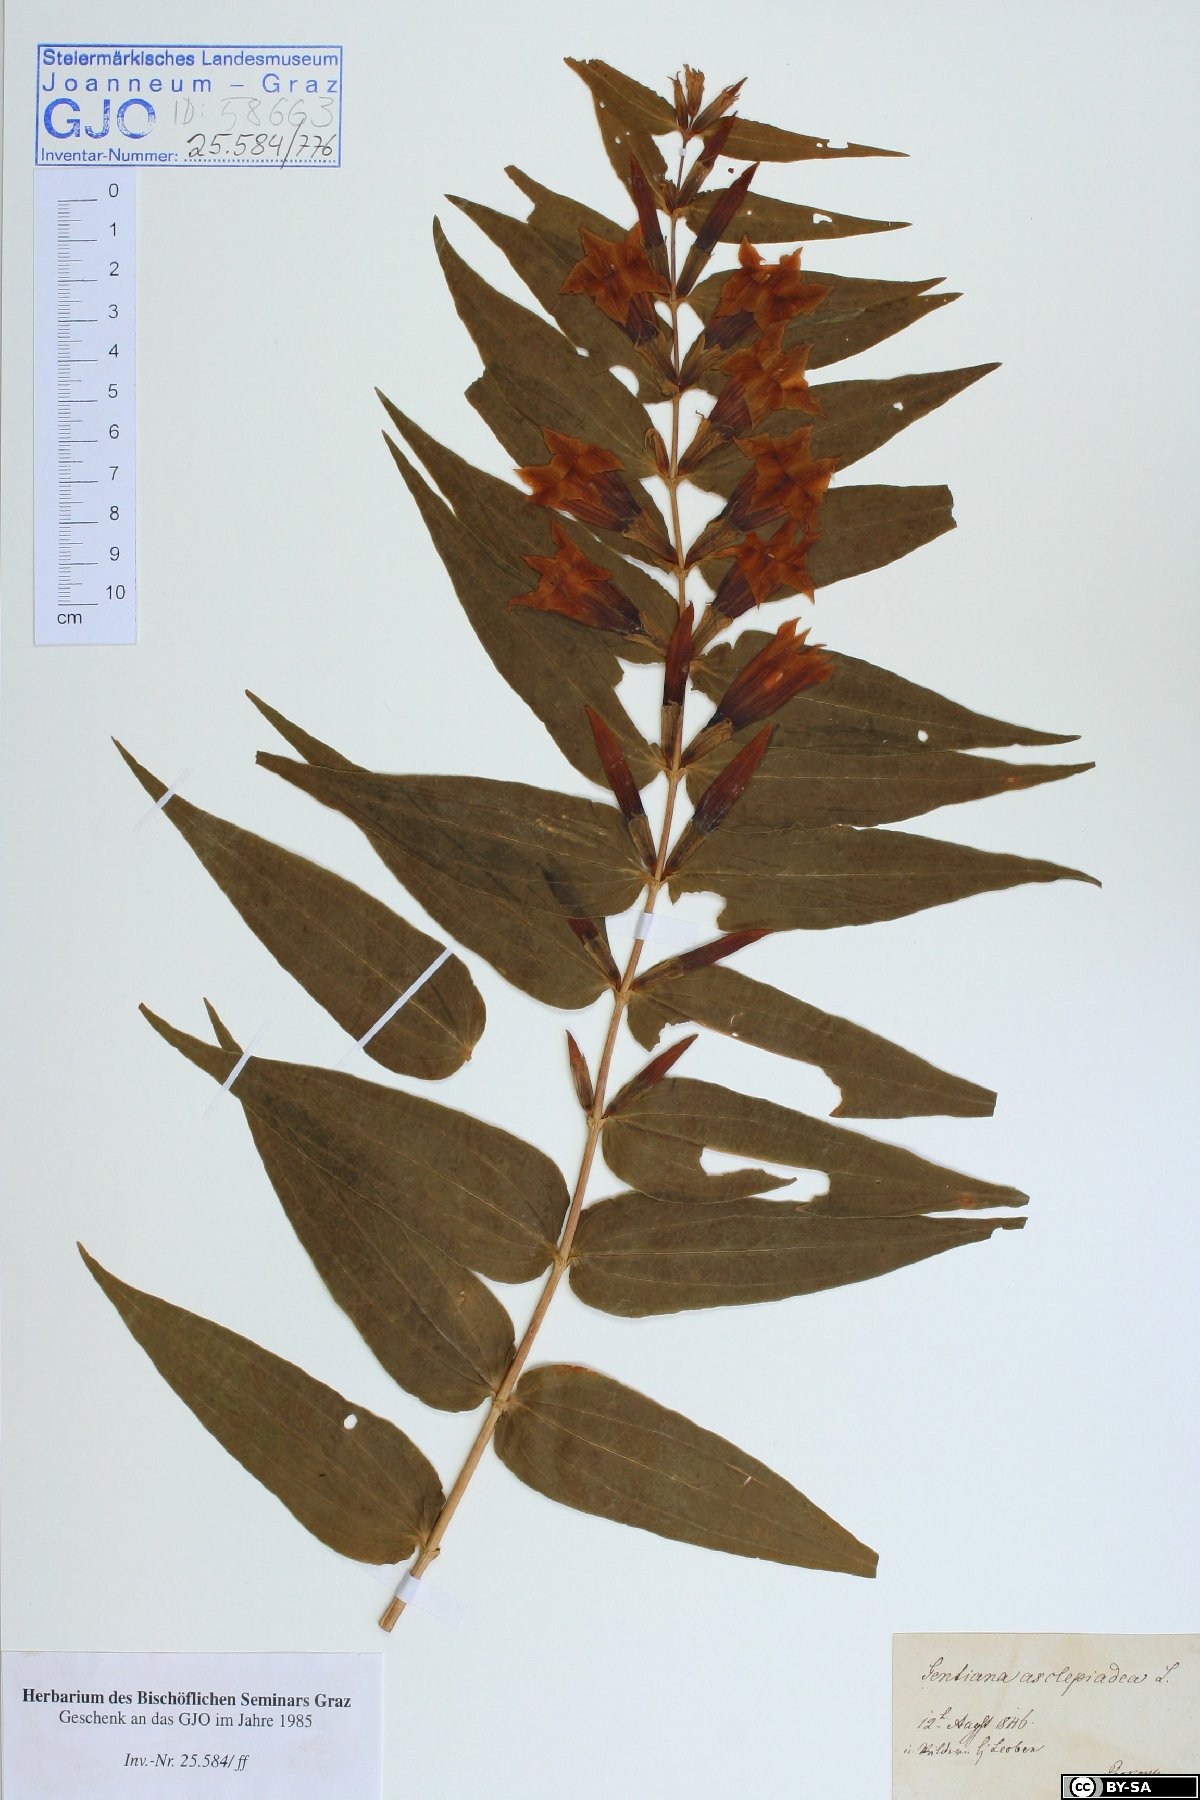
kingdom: Plantae
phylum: Tracheophyta
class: Magnoliopsida
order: Gentianales
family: Gentianaceae
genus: Gentiana
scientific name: Gentiana asclepiadea
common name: Willow gentian
